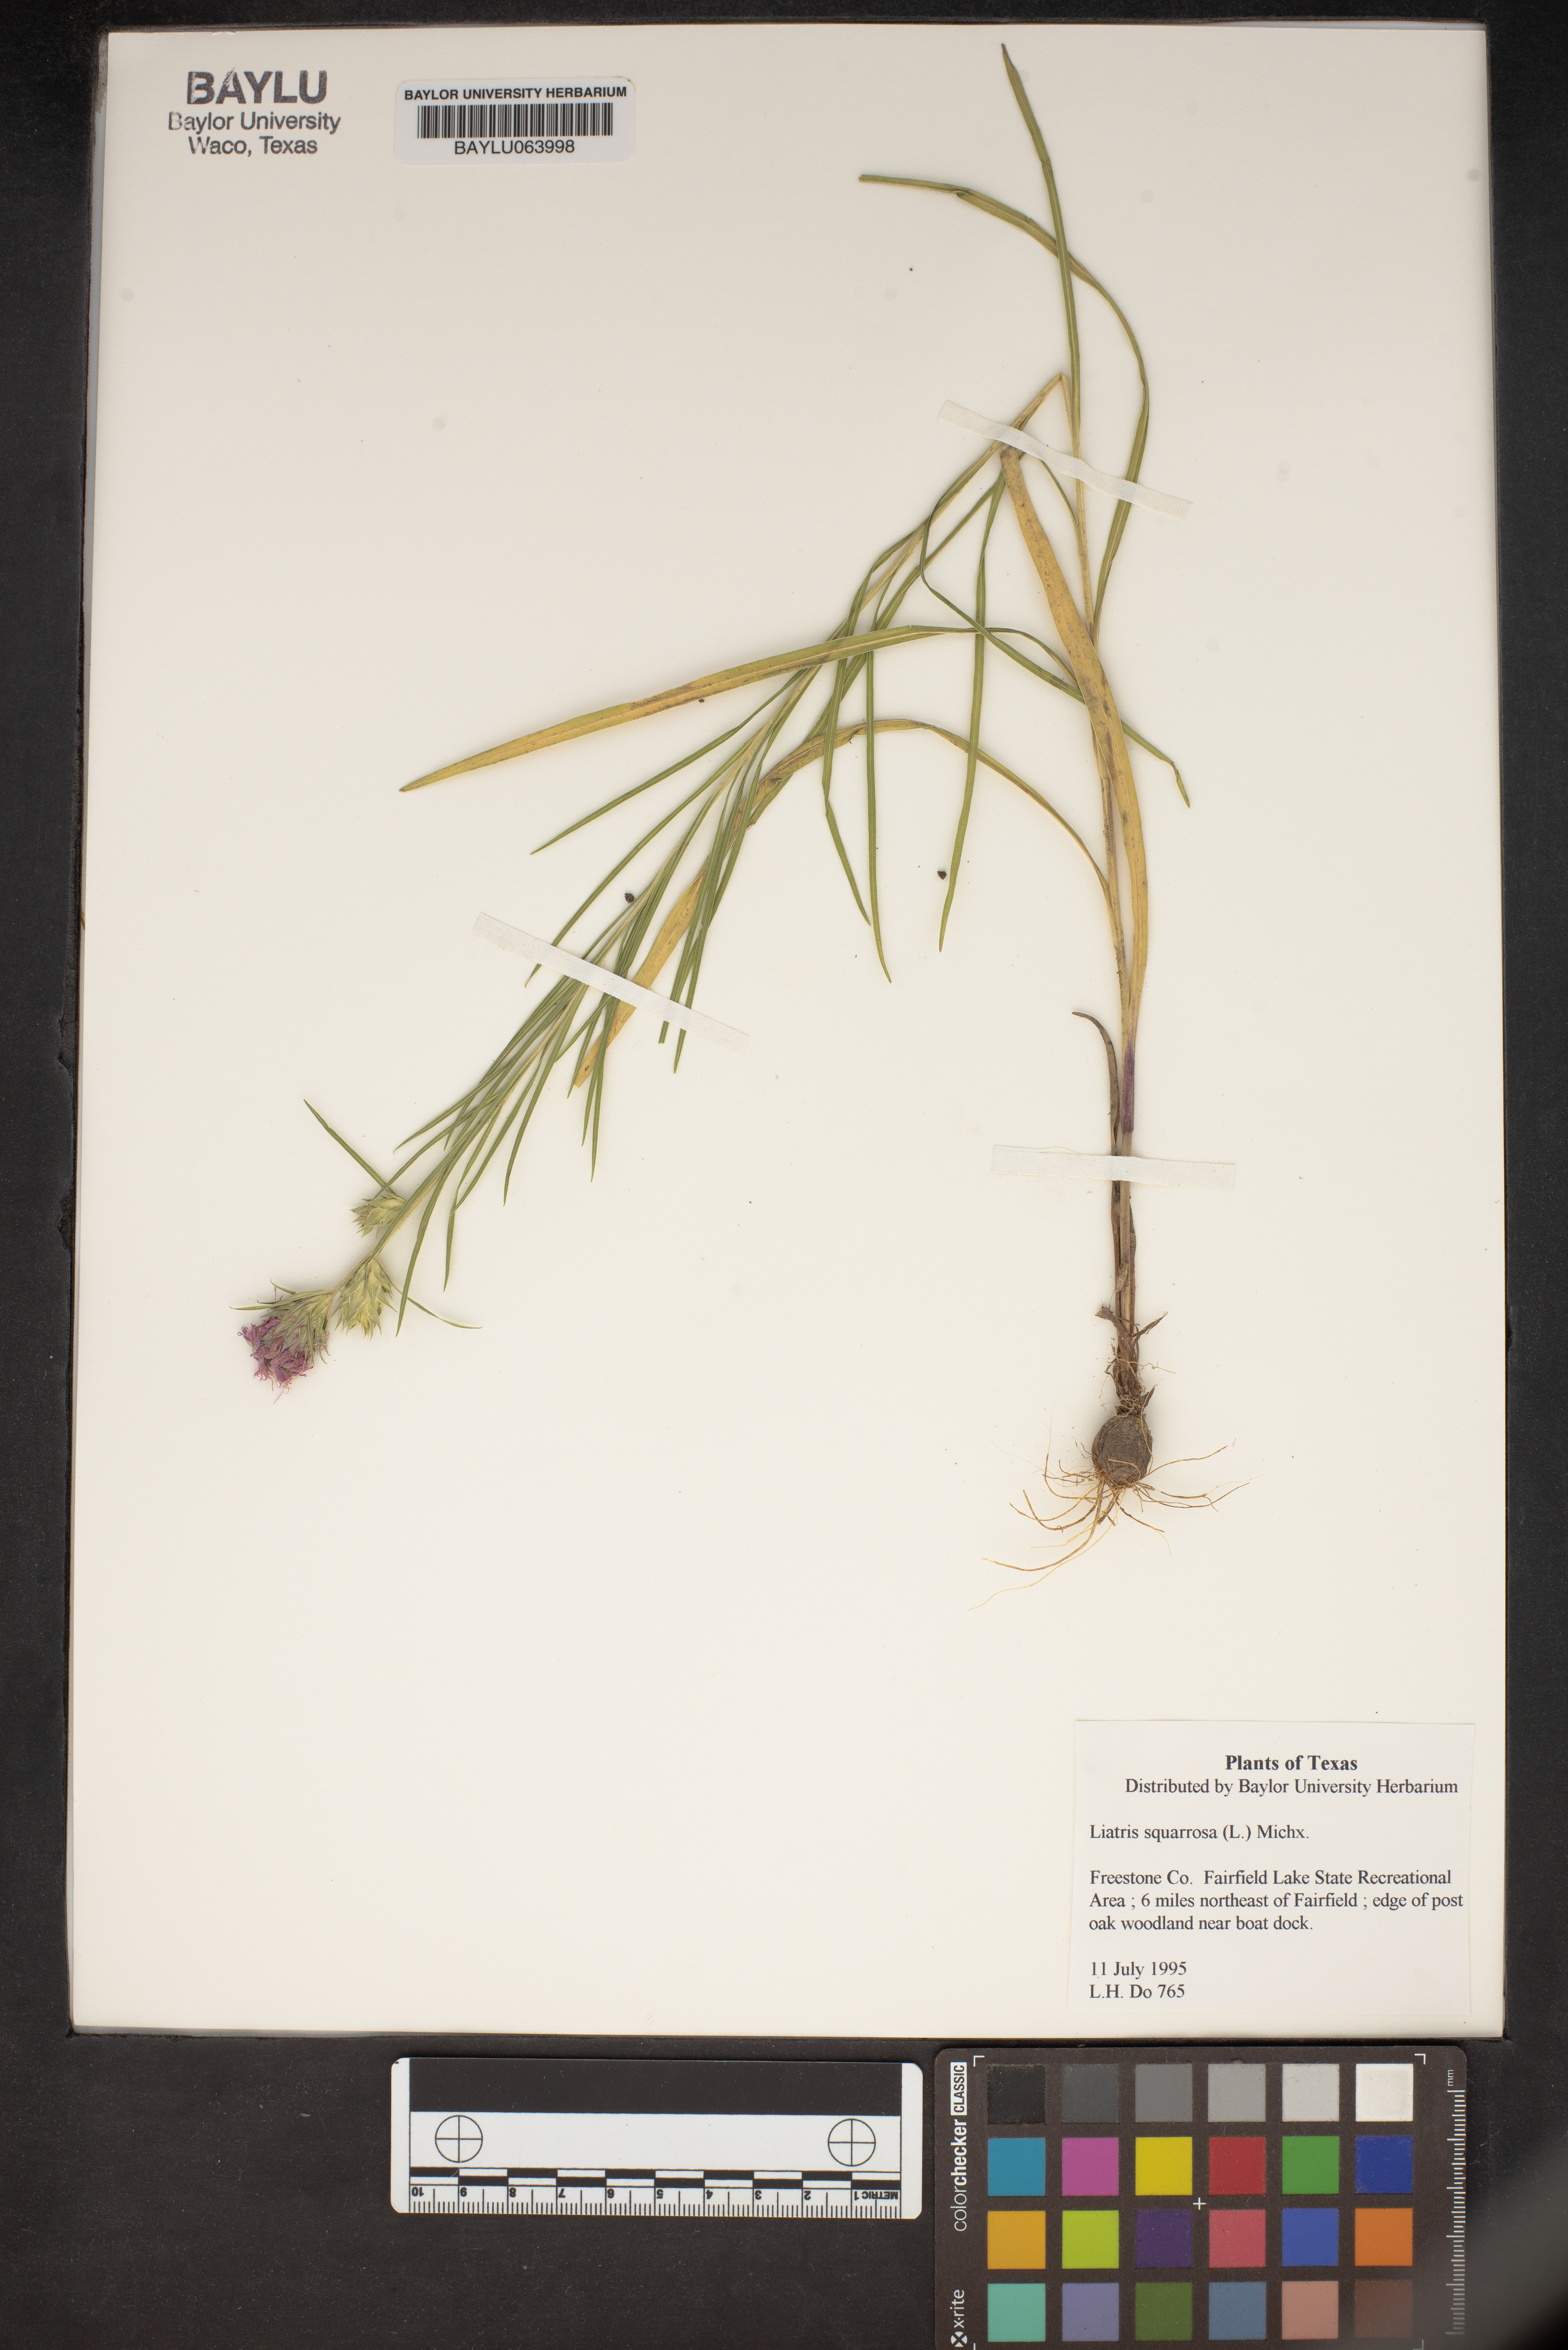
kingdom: Plantae
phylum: Tracheophyta
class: Magnoliopsida
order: Asterales
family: Asteraceae
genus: Liatris
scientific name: Liatris squarrosa
